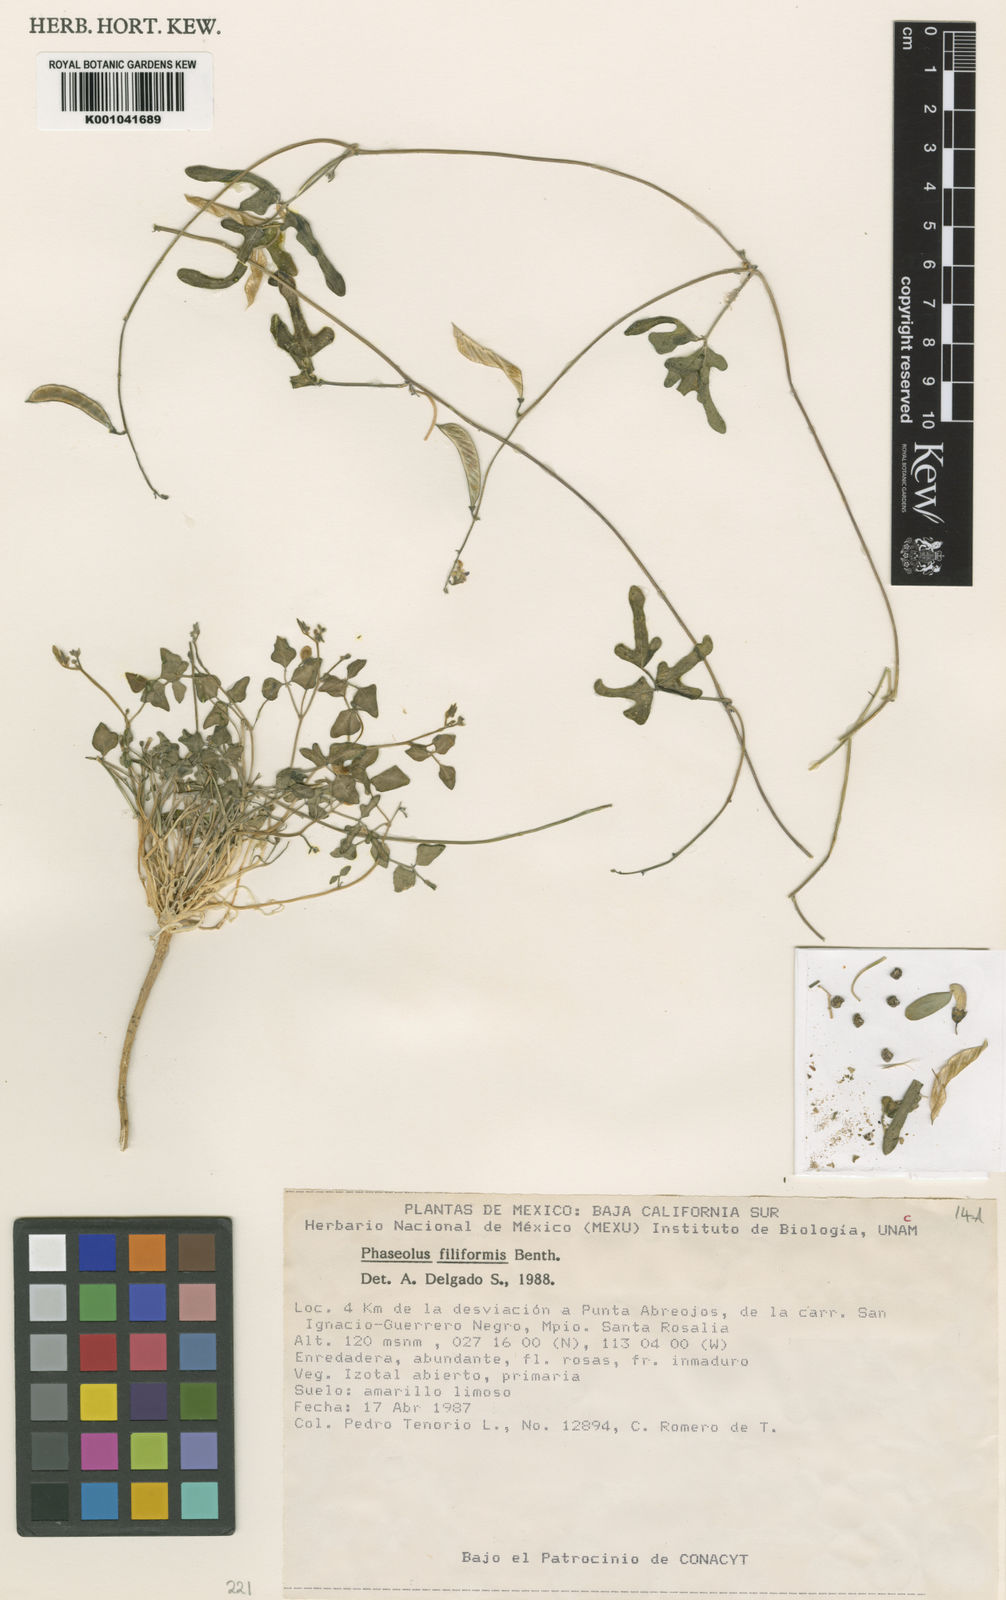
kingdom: Plantae
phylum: Tracheophyta
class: Magnoliopsida
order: Fabales
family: Fabaceae
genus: Phaseolus
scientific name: Phaseolus filiformis
